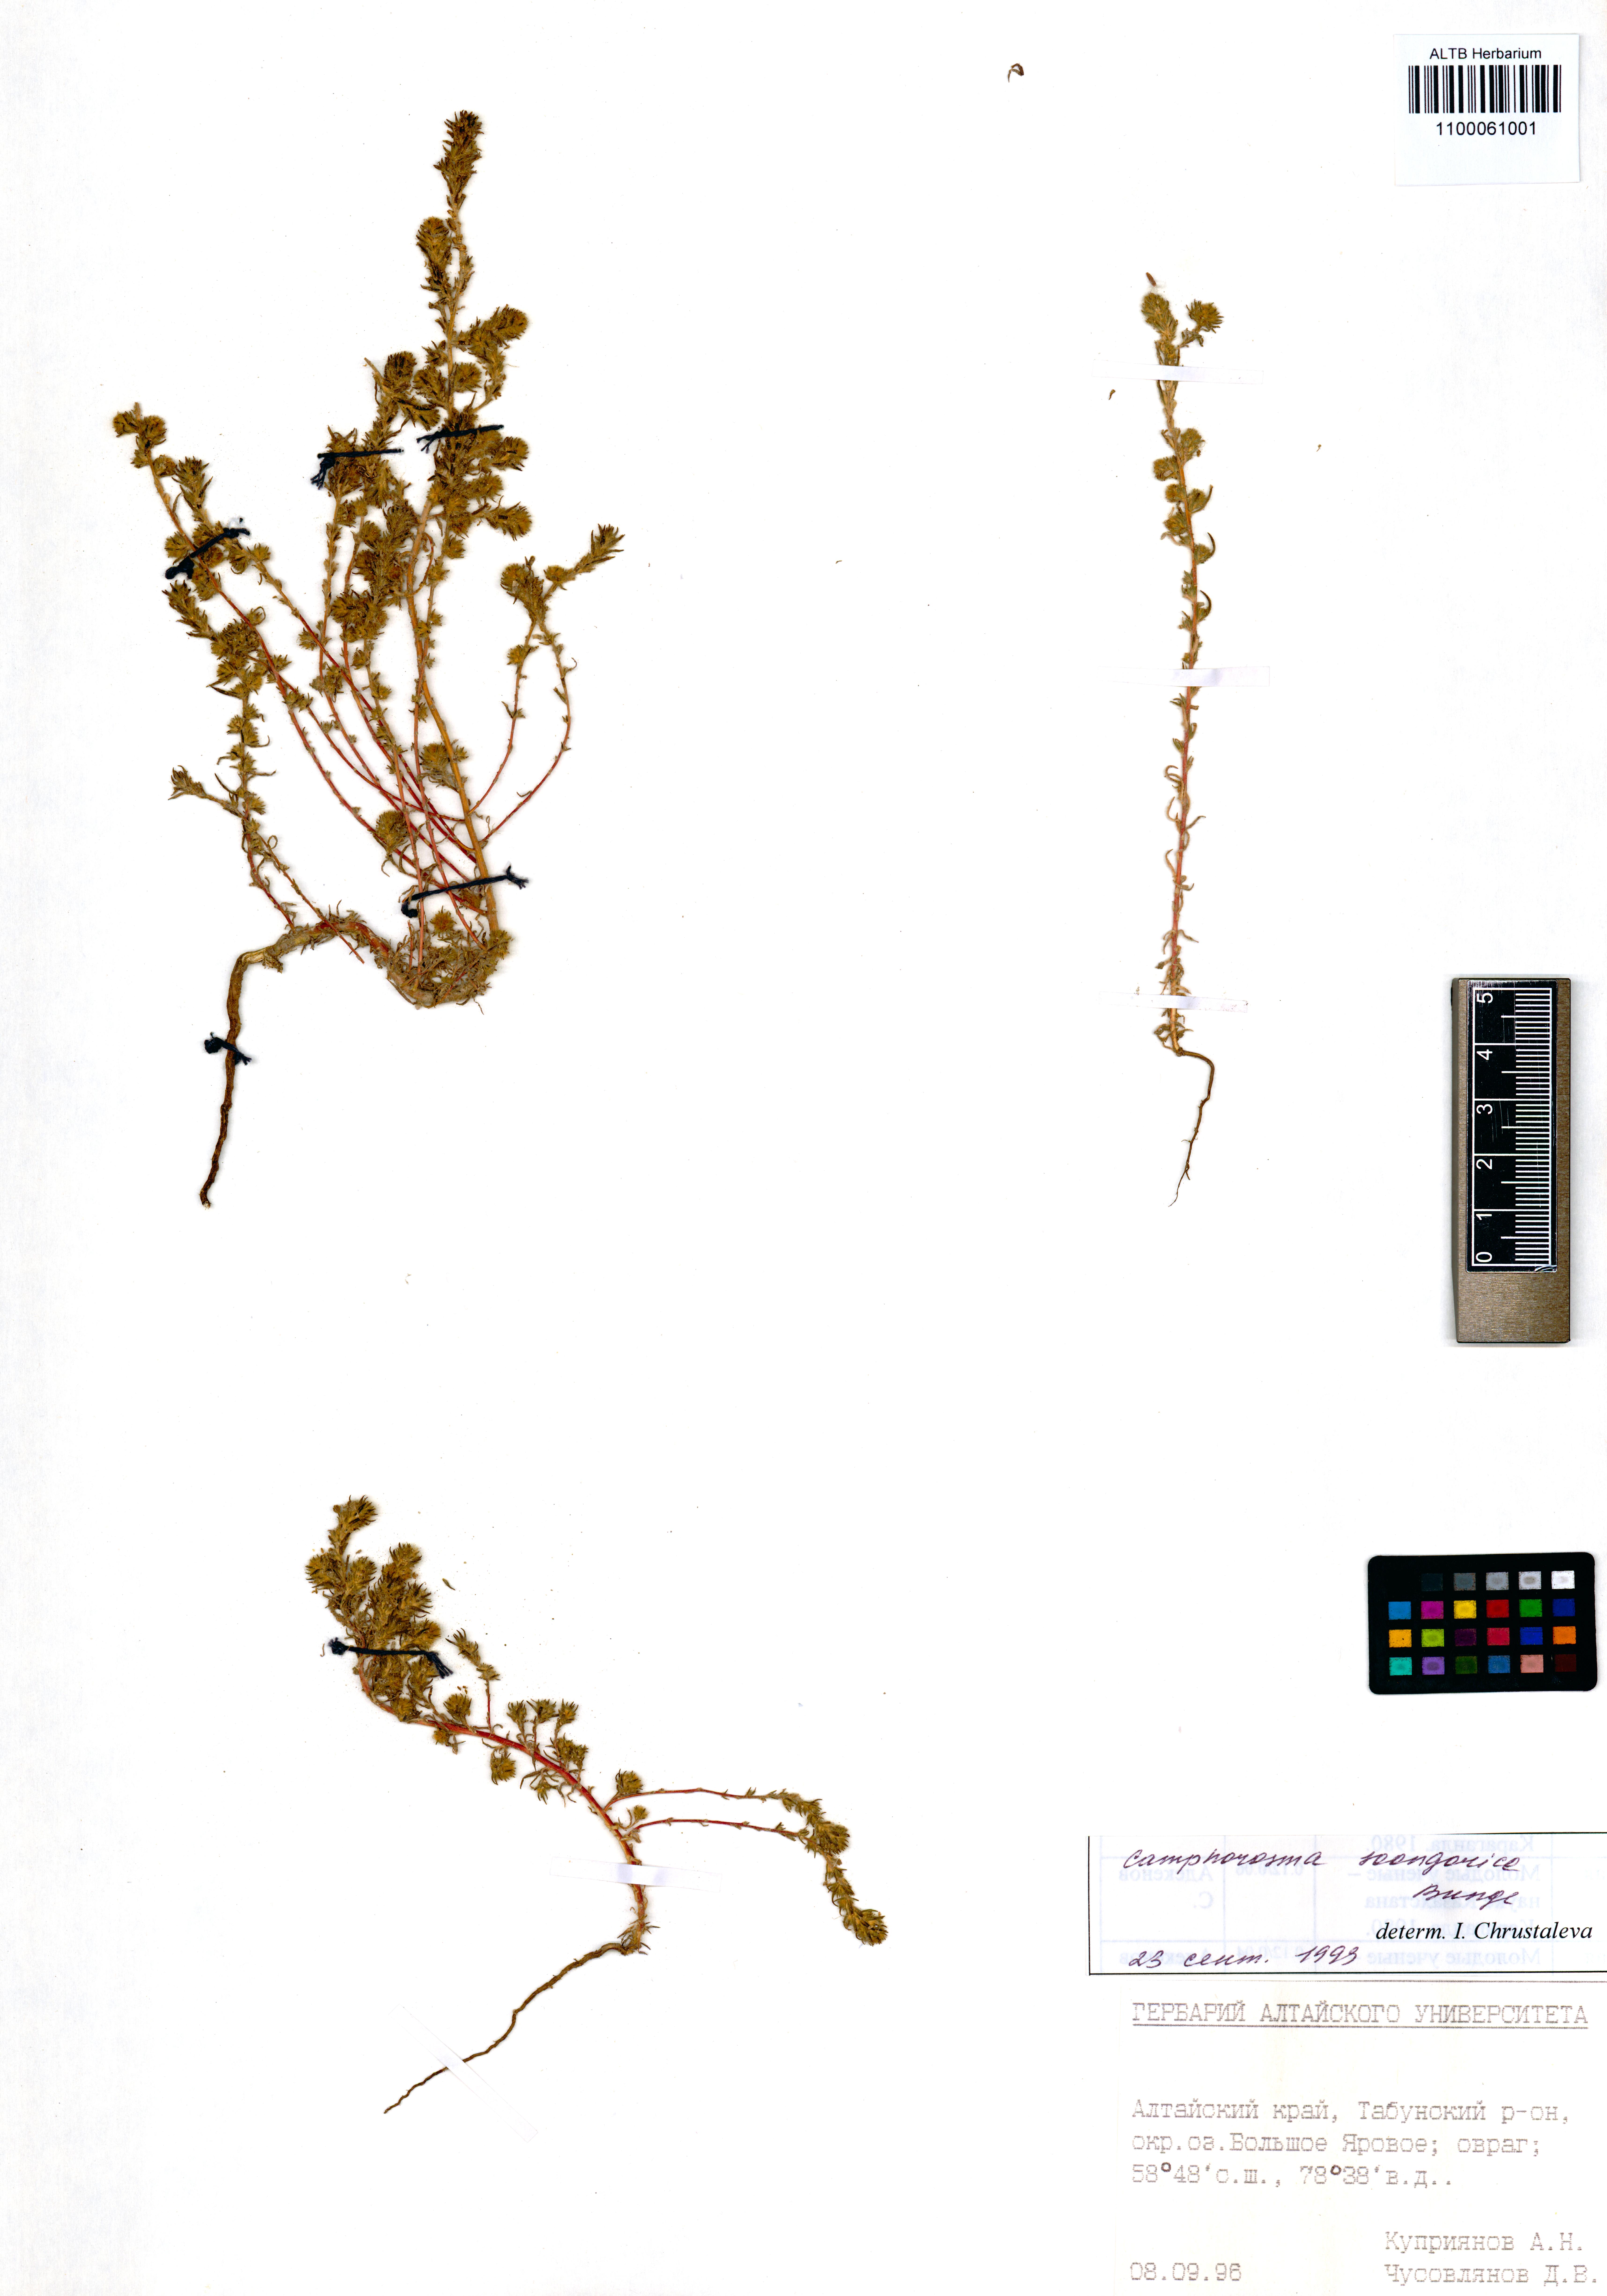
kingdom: Plantae
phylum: Tracheophyta
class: Magnoliopsida
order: Caryophyllales
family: Amaranthaceae
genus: Camphorosma
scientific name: Camphorosma songorica
